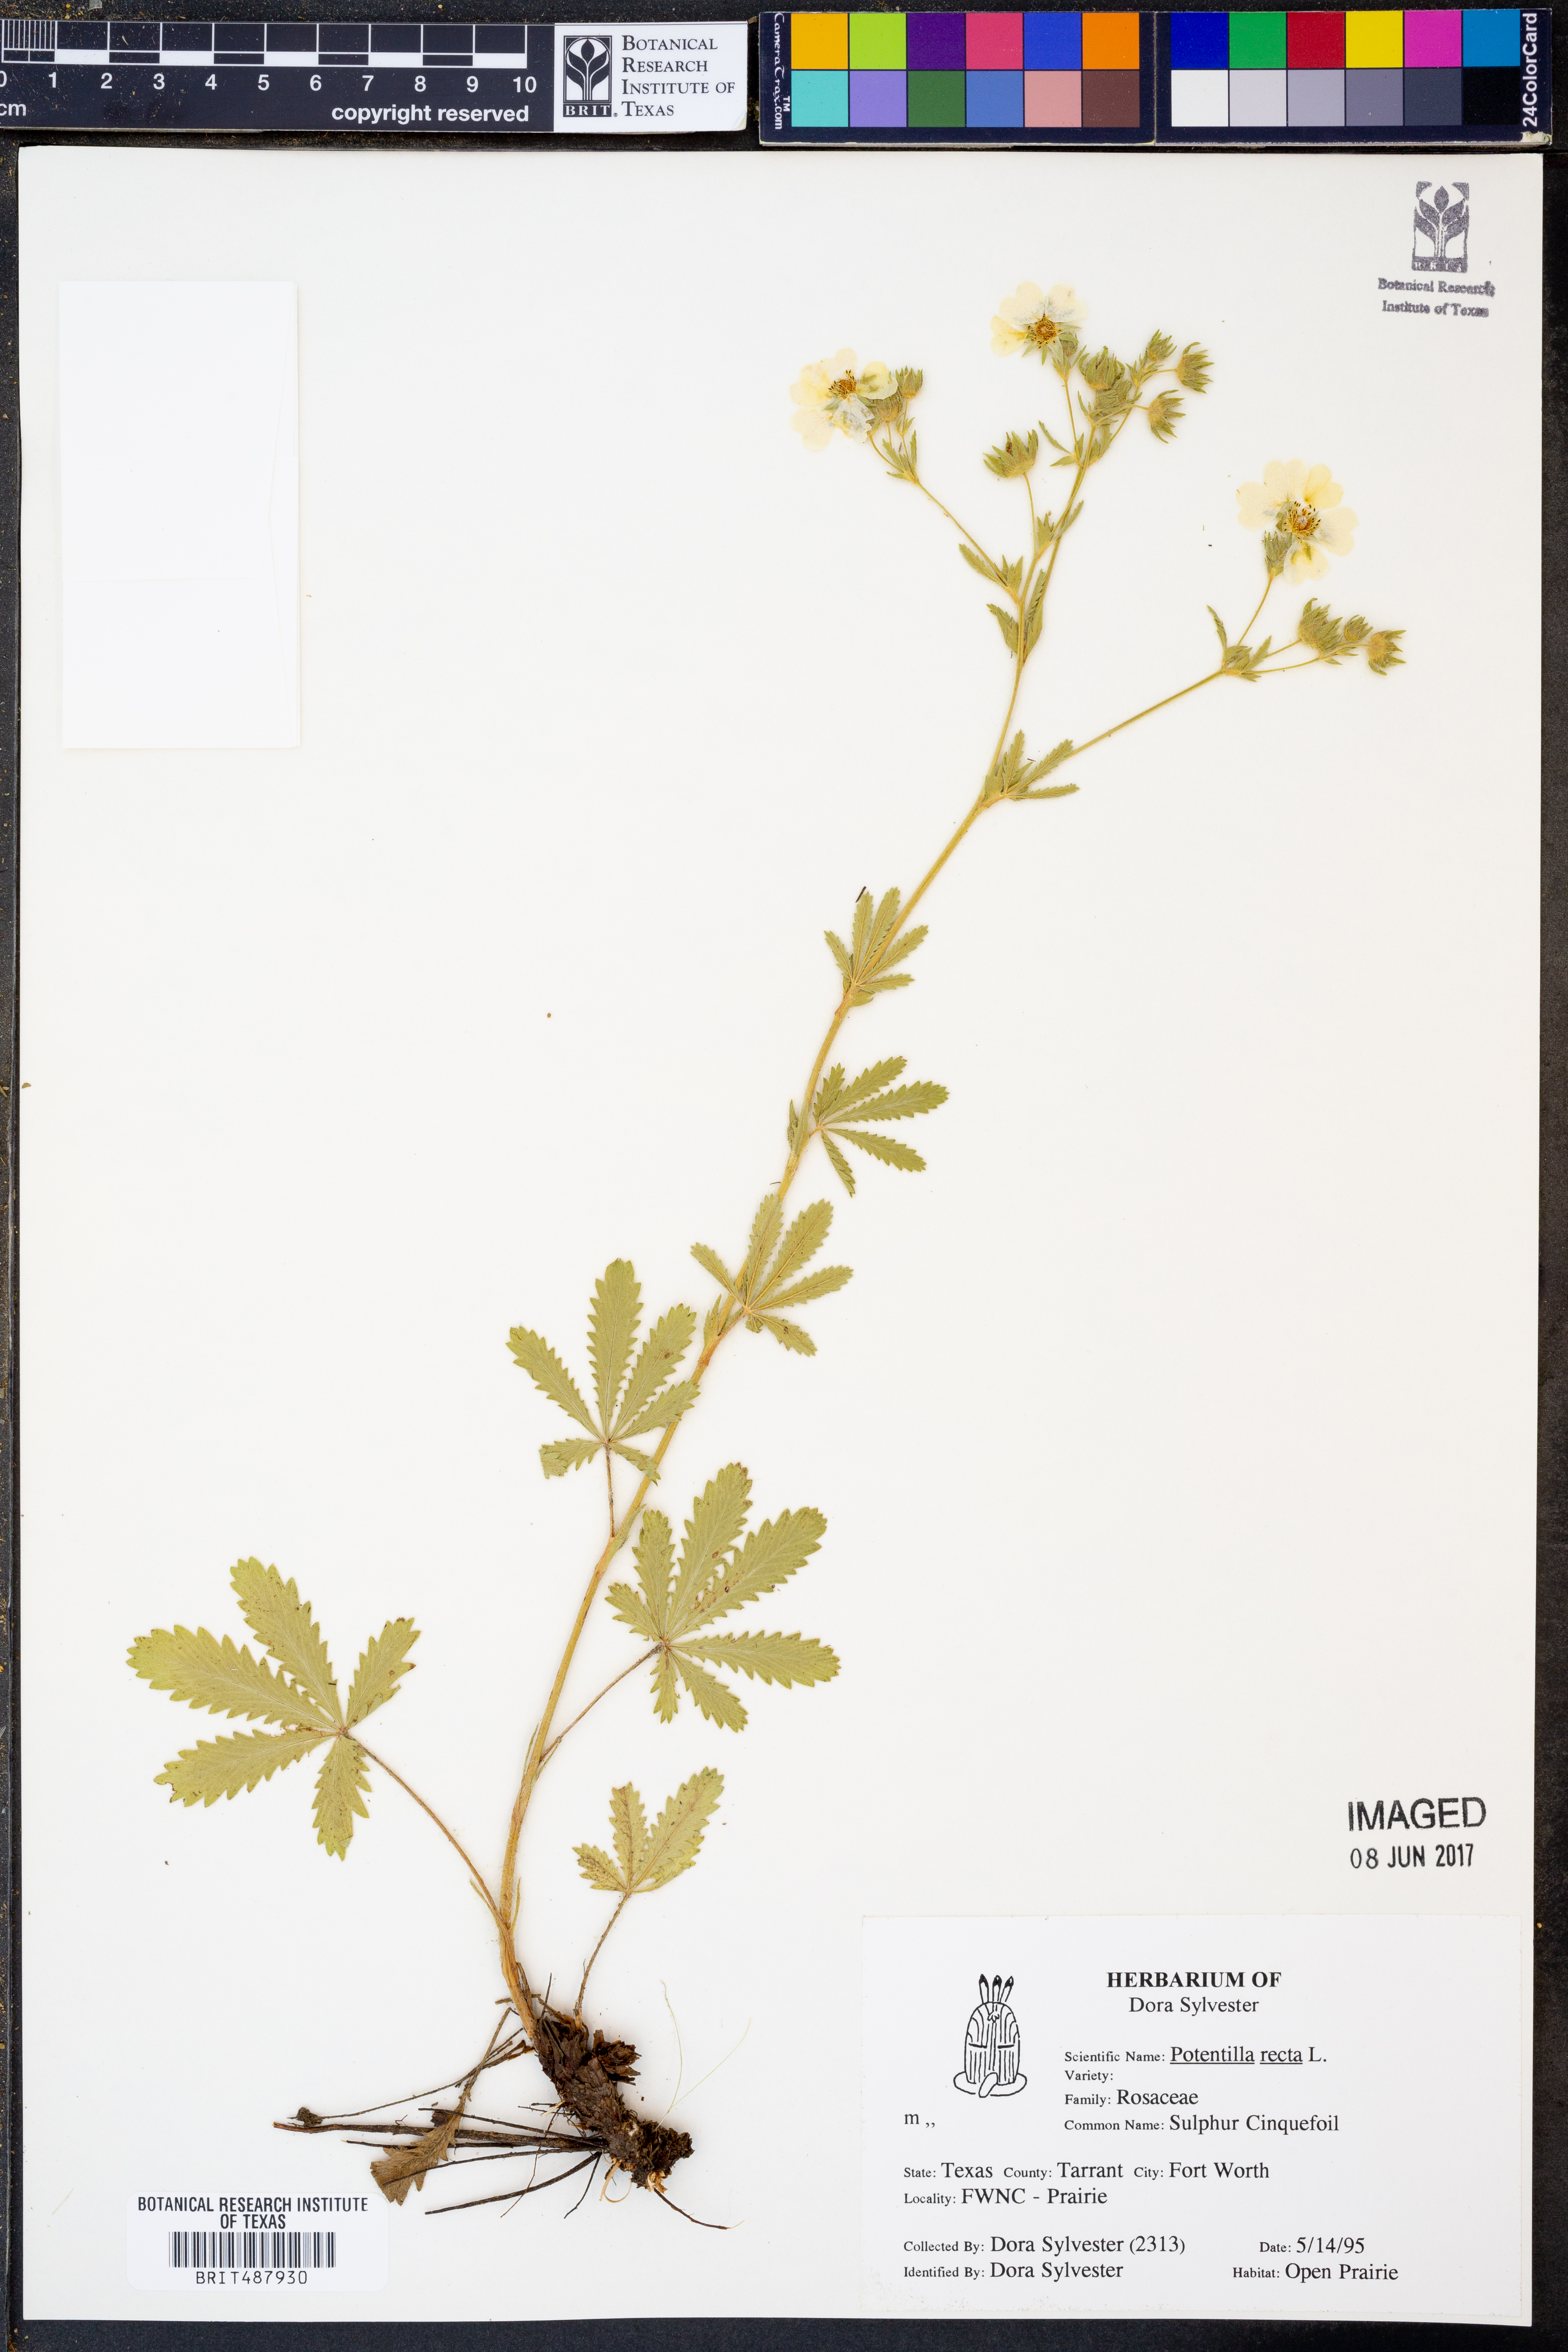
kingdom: Plantae
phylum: Tracheophyta
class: Magnoliopsida
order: Rosales
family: Rosaceae
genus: Potentilla
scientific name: Potentilla recta
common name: Sulphur cinquefoil
